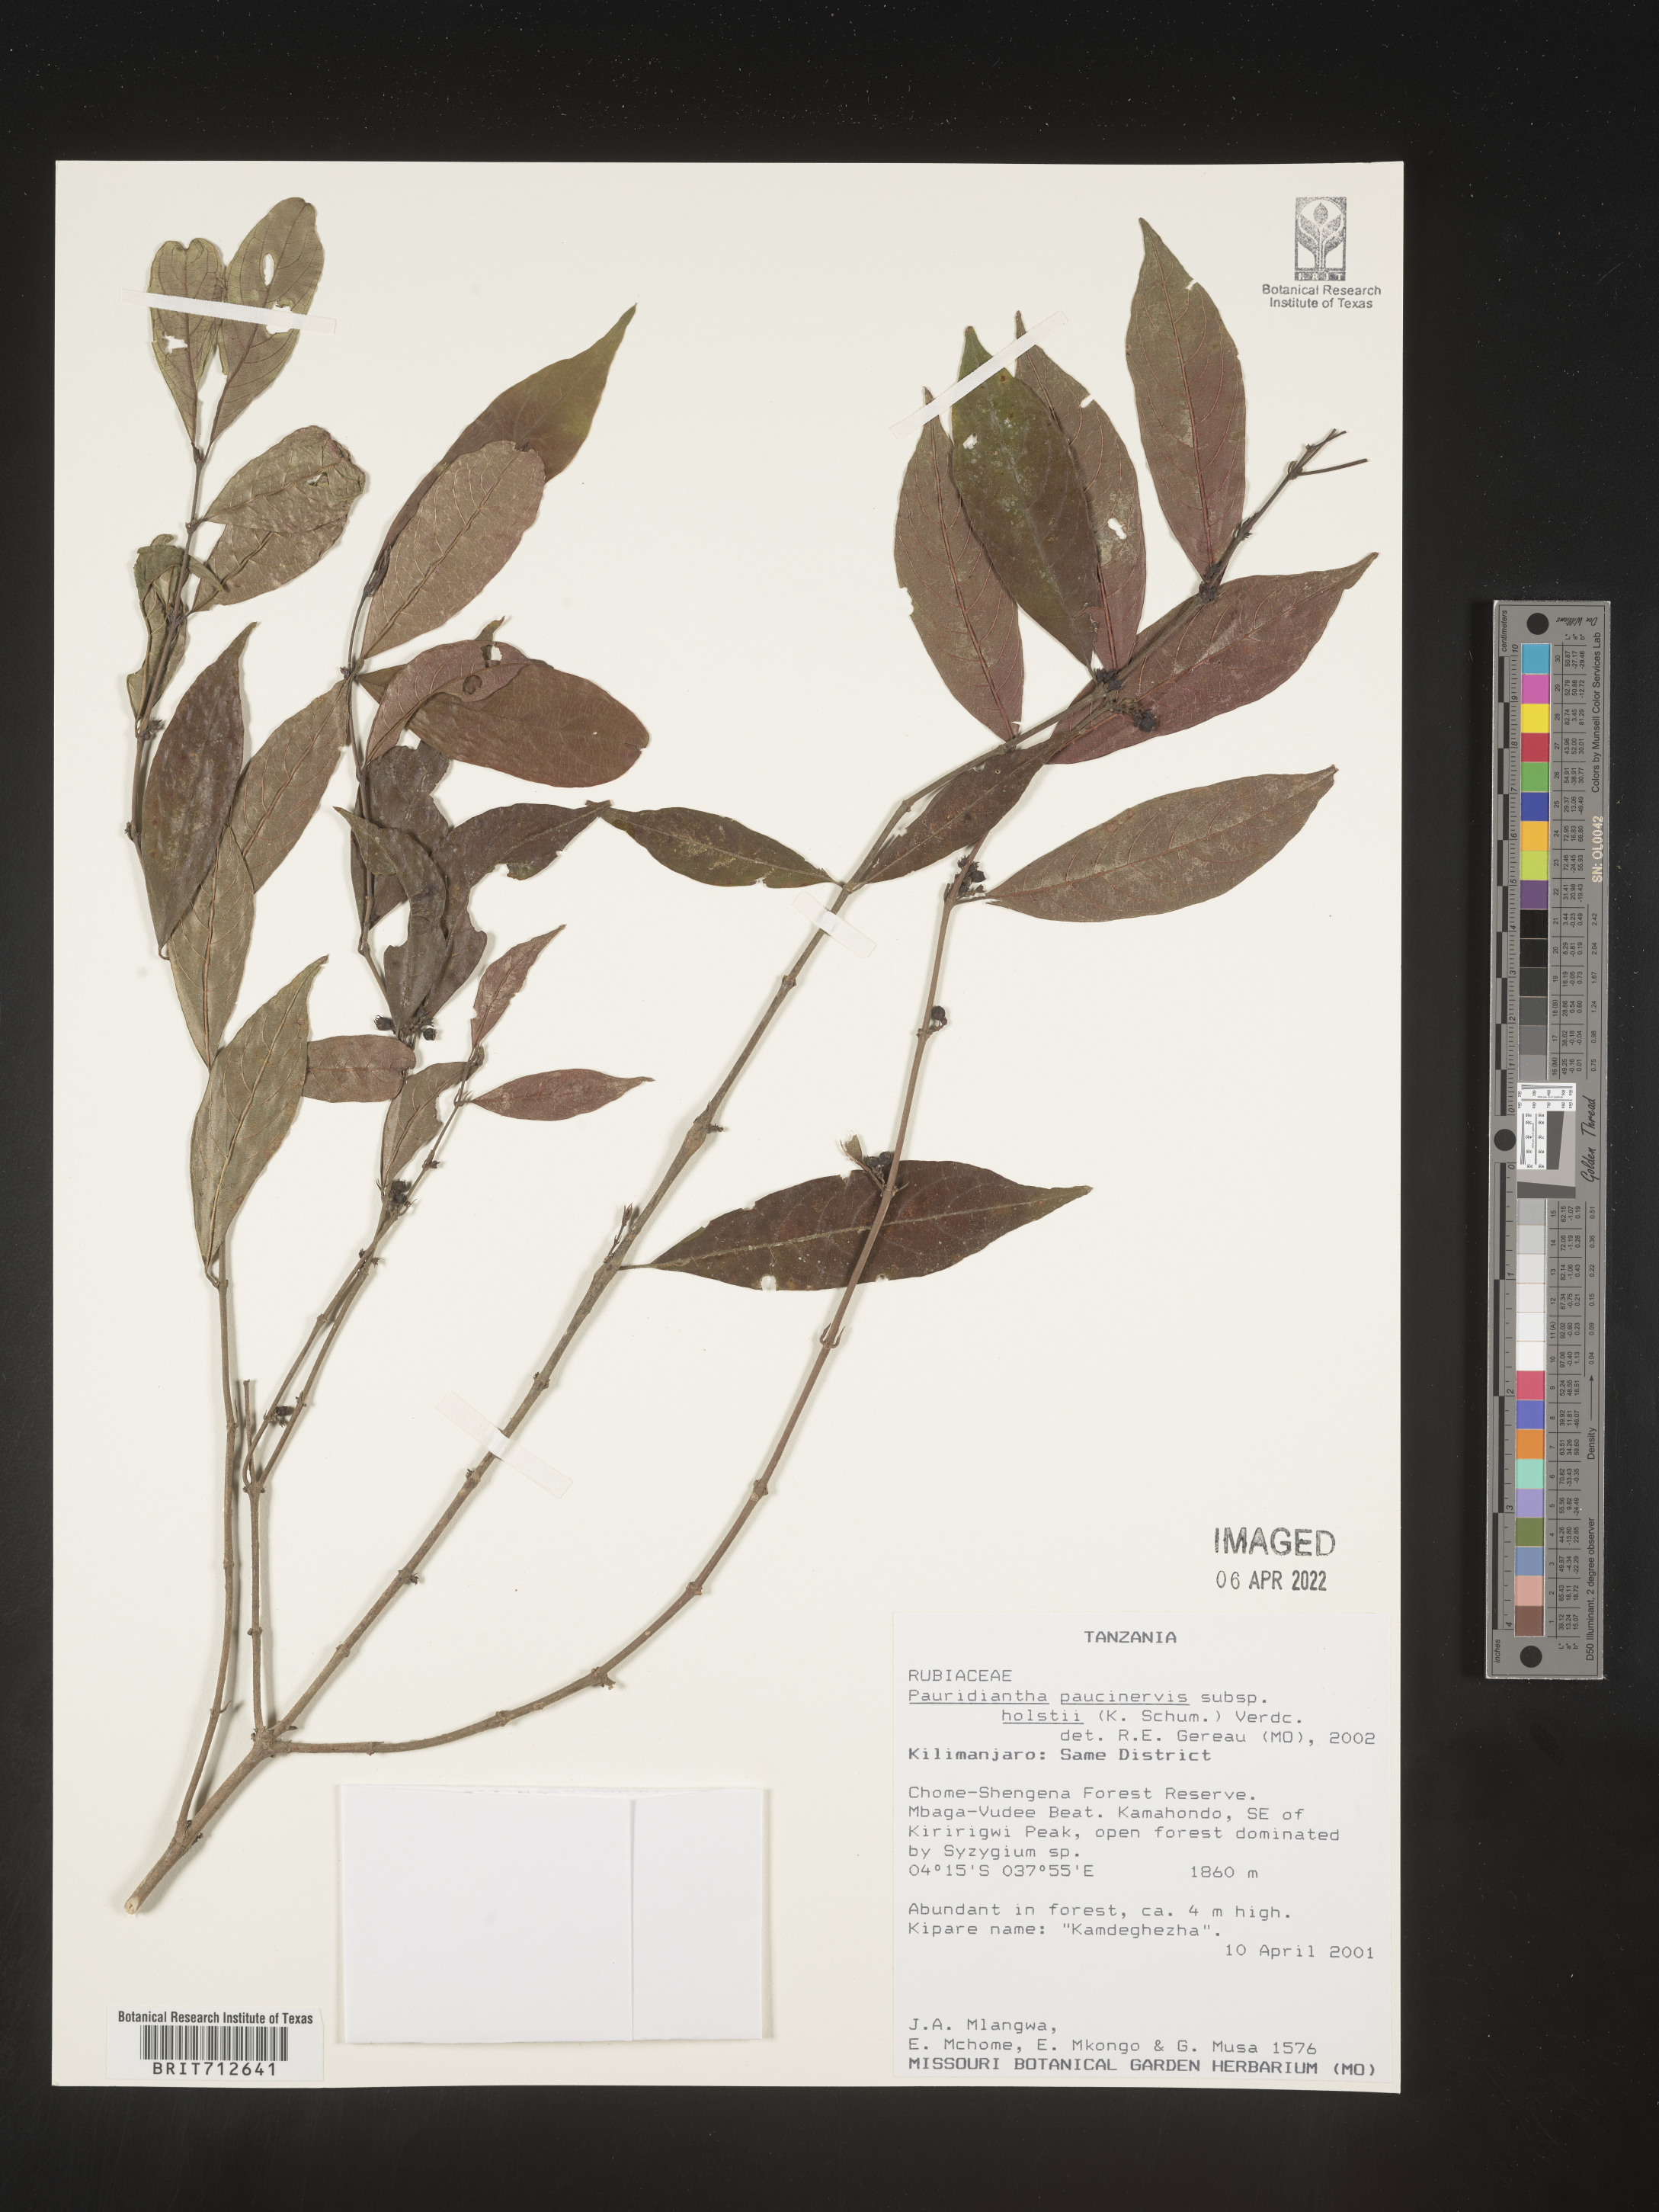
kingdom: Plantae
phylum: Tracheophyta
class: Magnoliopsida
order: Gentianales
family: Rubiaceae
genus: Pauridiantha
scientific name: Pauridiantha
